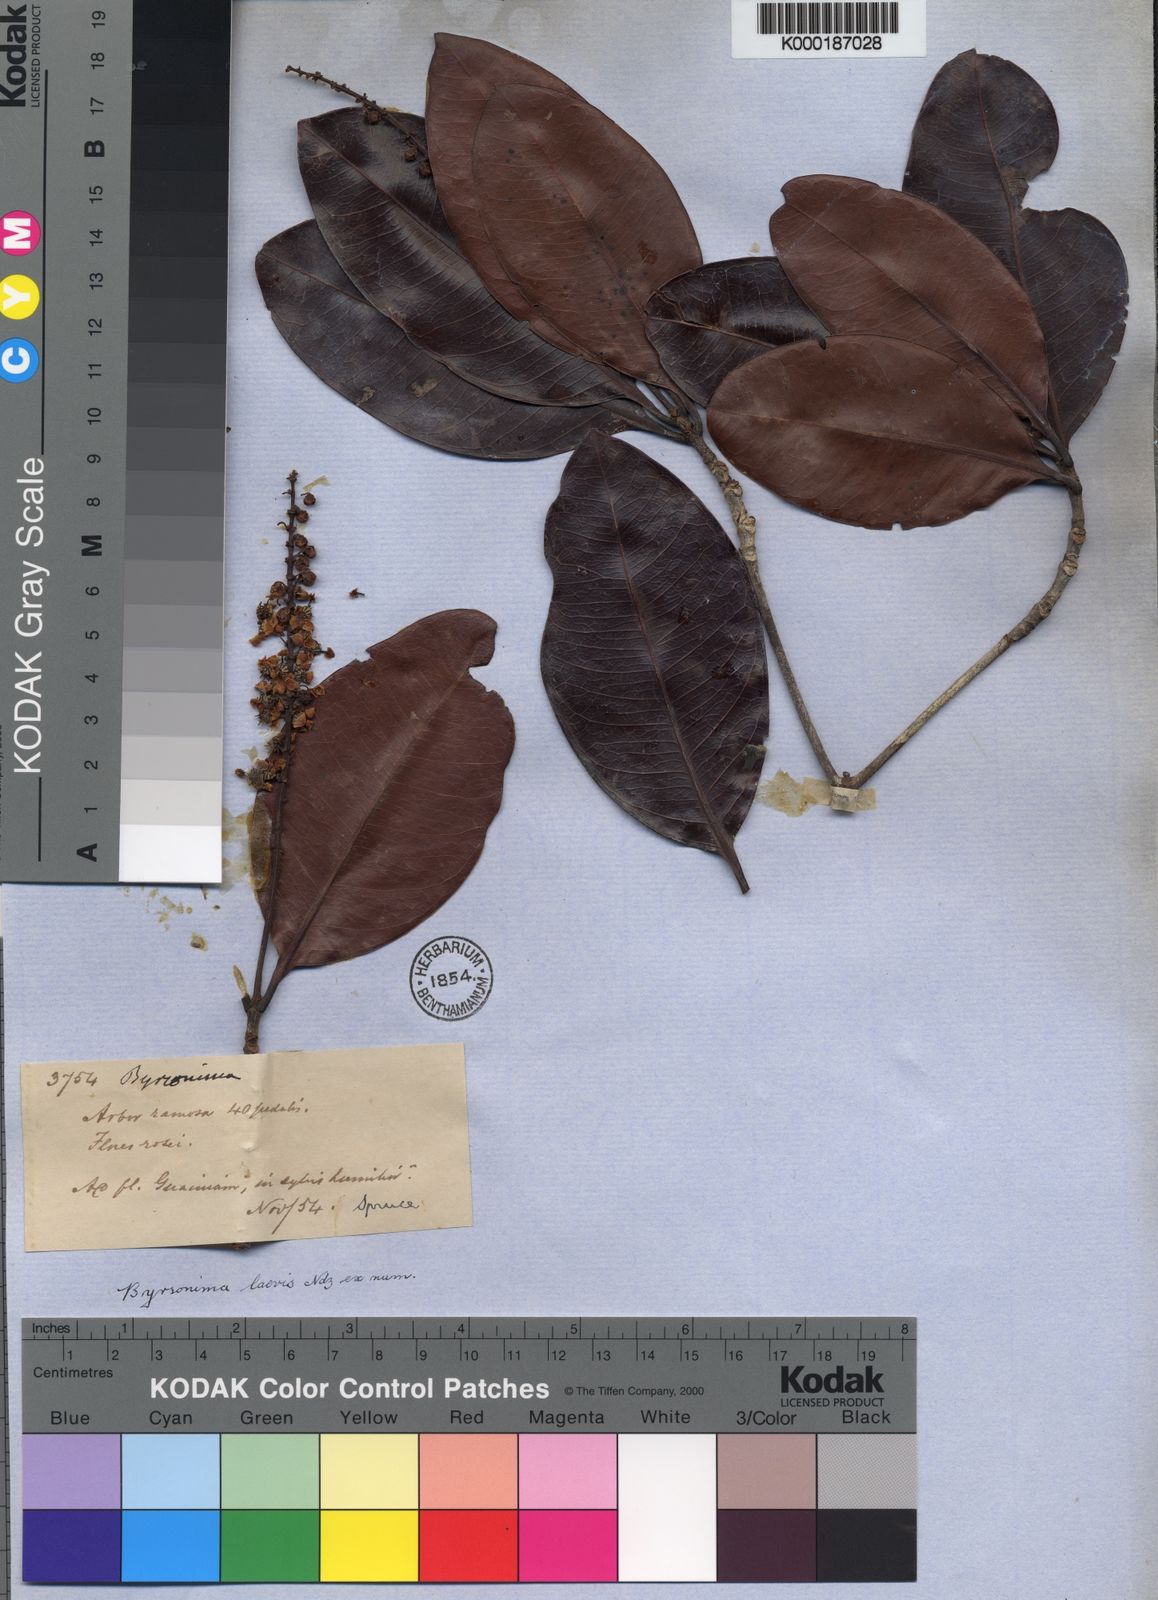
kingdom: Plantae
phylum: Tracheophyta
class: Magnoliopsida
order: Malpighiales
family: Malpighiaceae
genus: Byrsonima
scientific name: Byrsonima laevis
